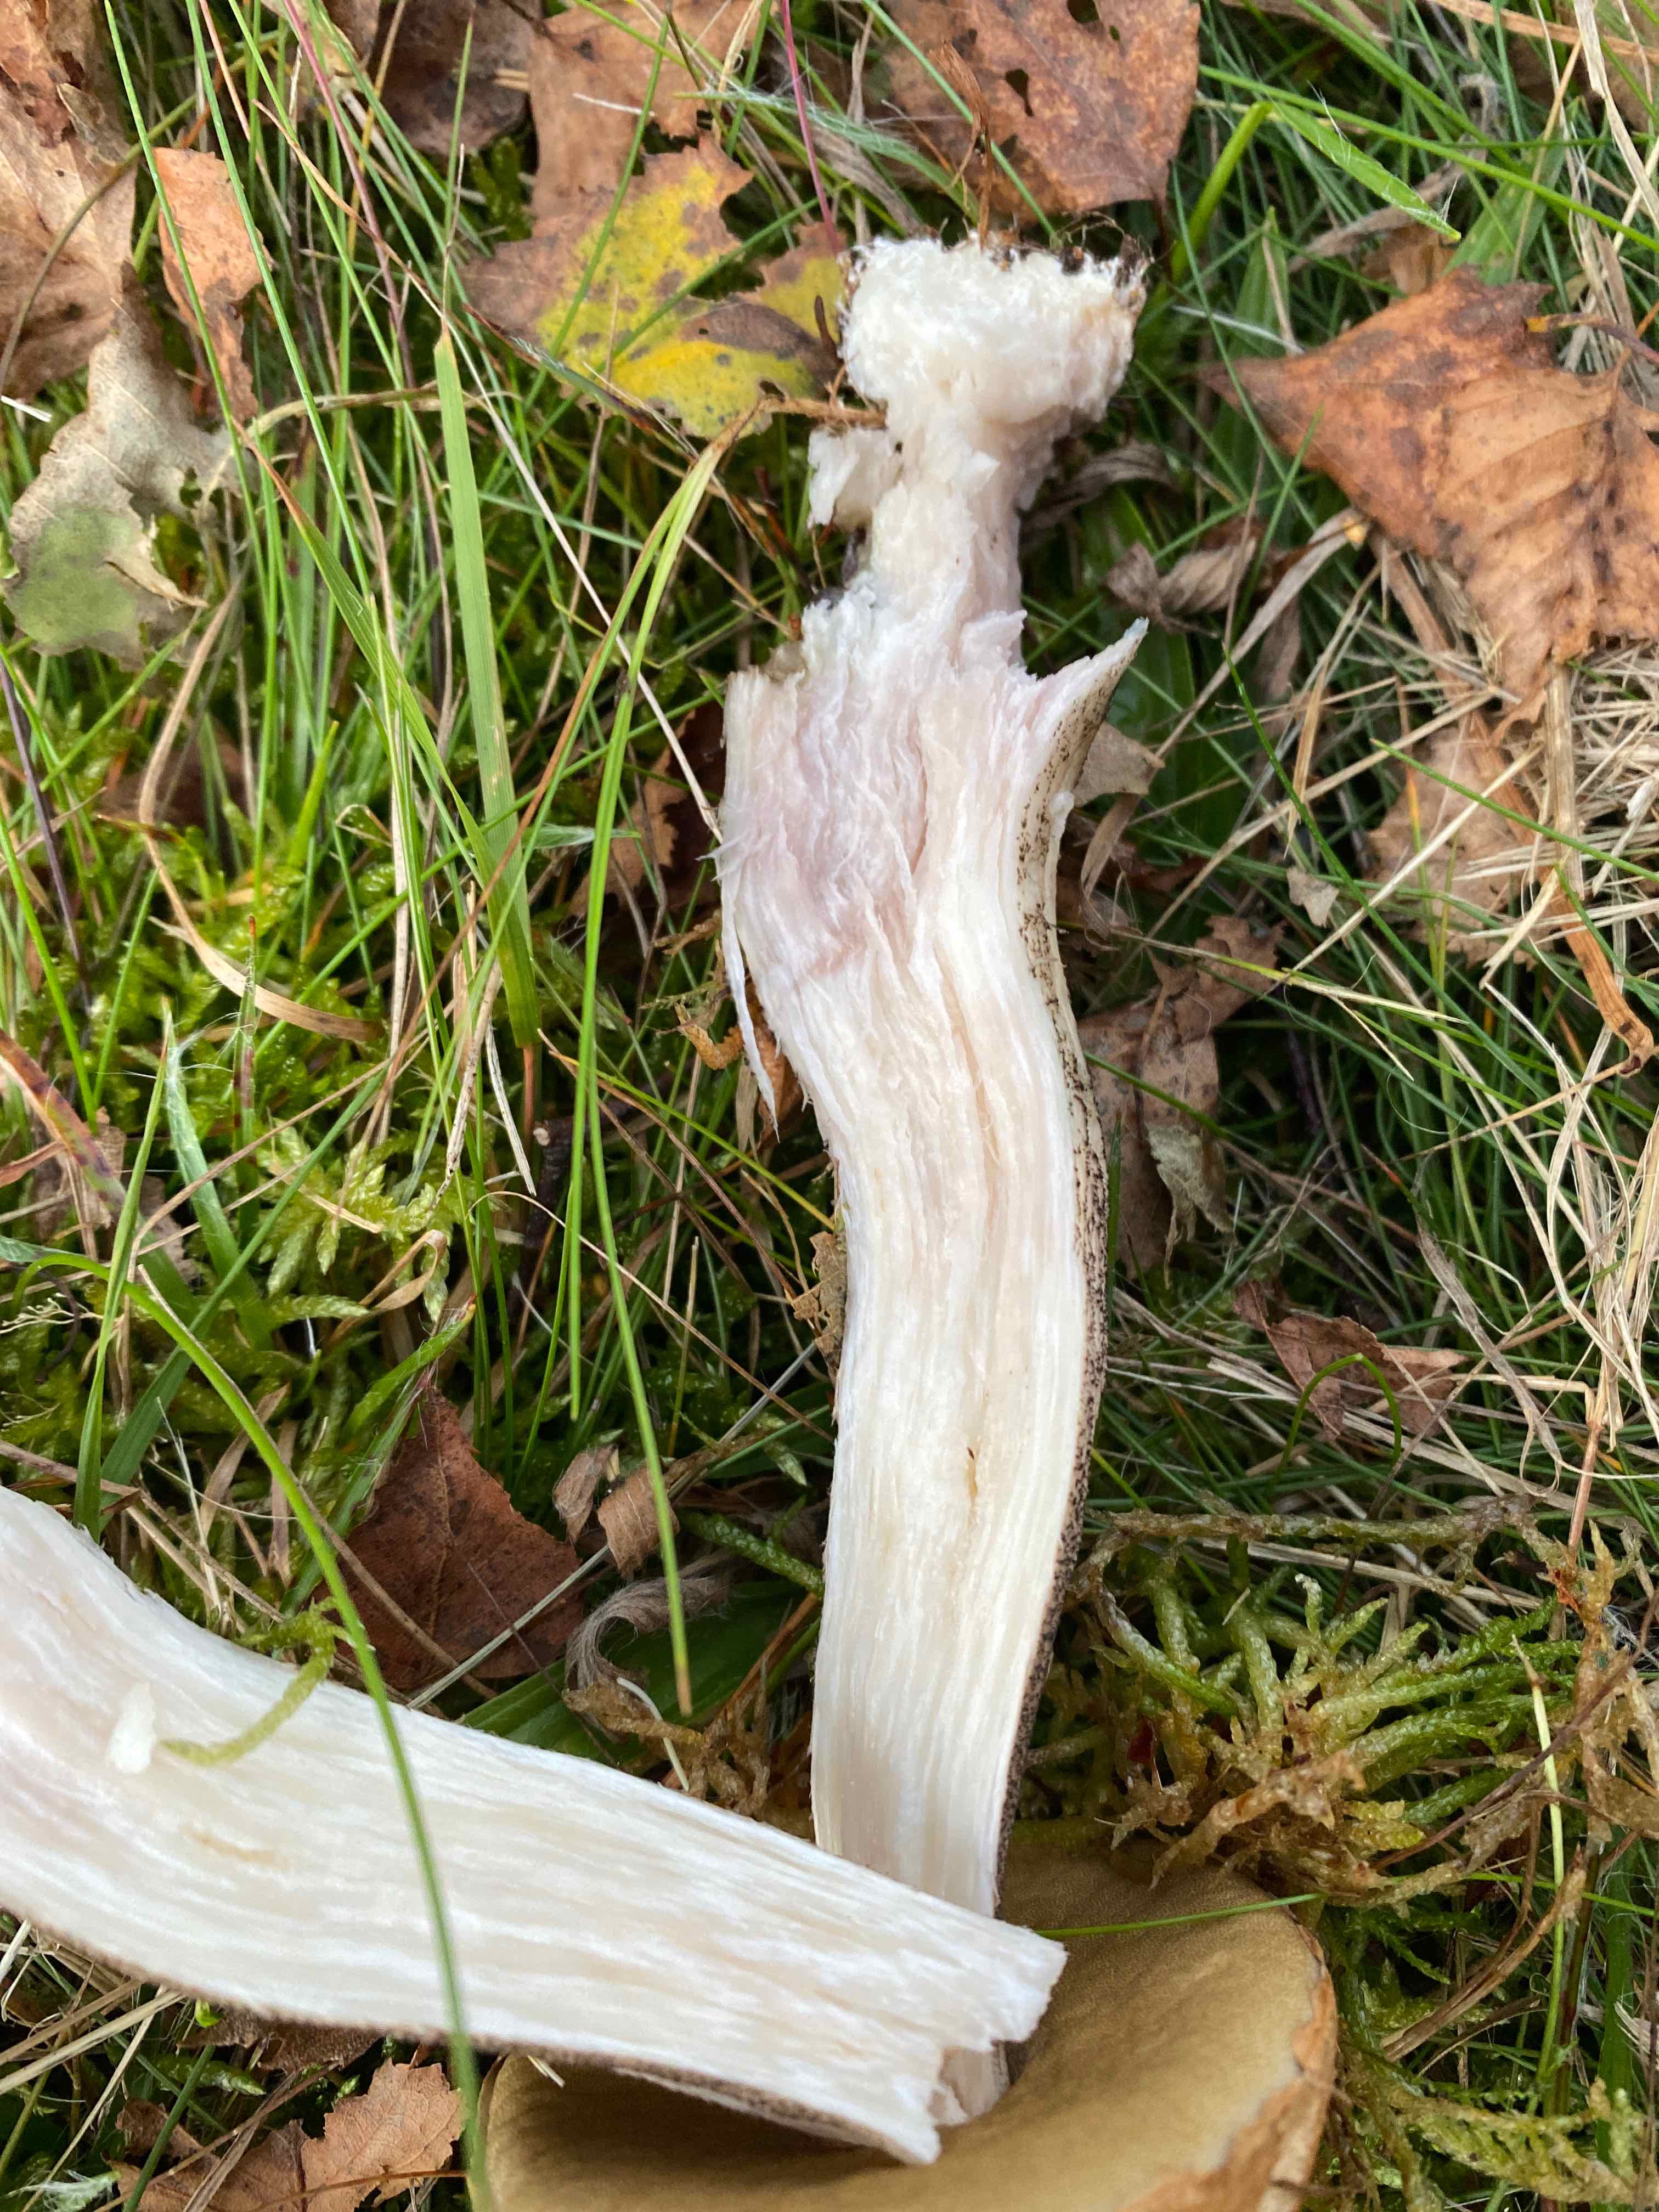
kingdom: Fungi
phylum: Basidiomycota
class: Agaricomycetes
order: Boletales
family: Boletaceae
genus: Leccinum
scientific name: Leccinum versipelle
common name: orange skælrørhat
